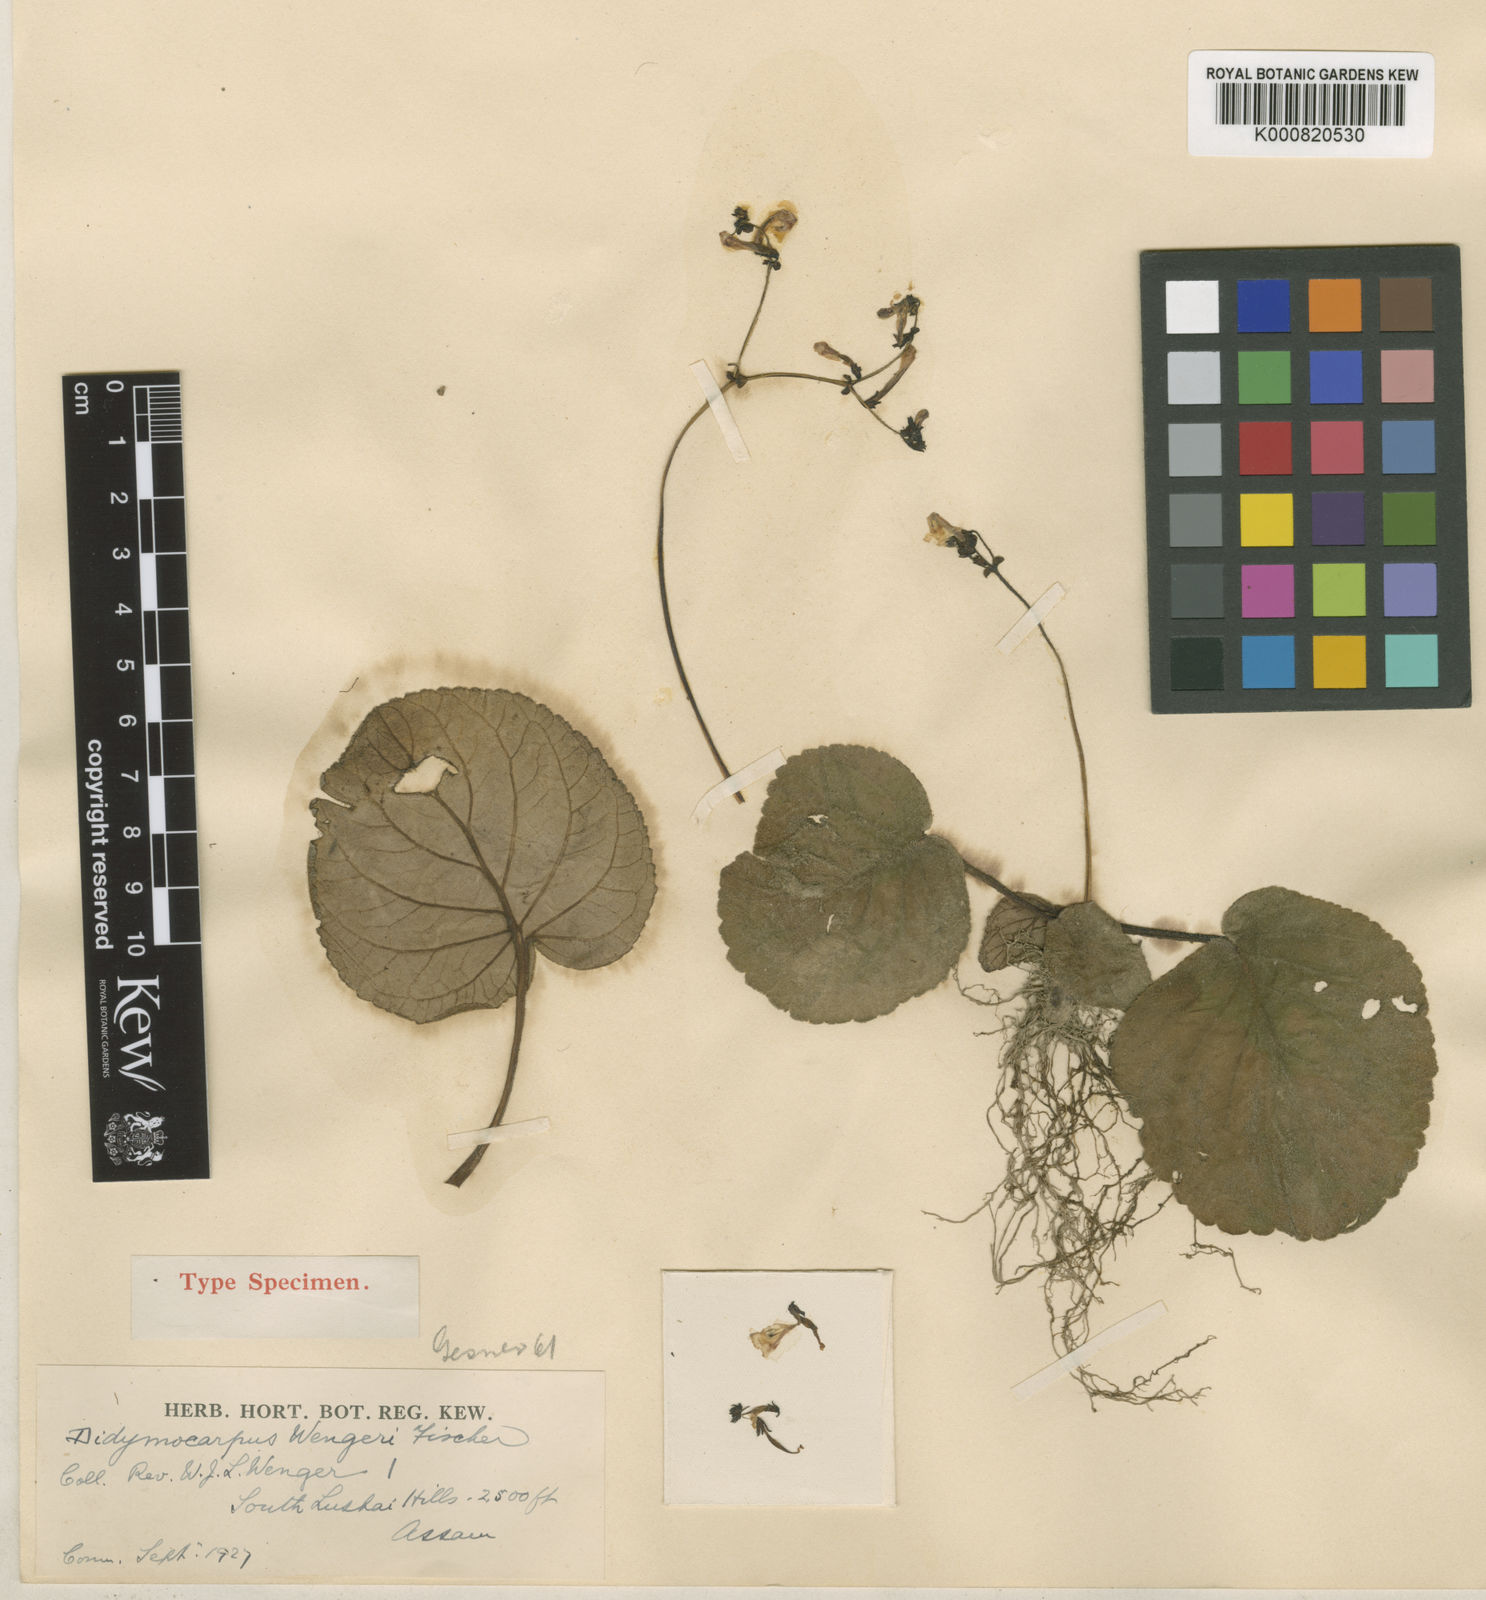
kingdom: Plantae
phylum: Tracheophyta
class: Magnoliopsida
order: Lamiales
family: Gesneriaceae
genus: Didymocarpus
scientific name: Didymocarpus wengeri
